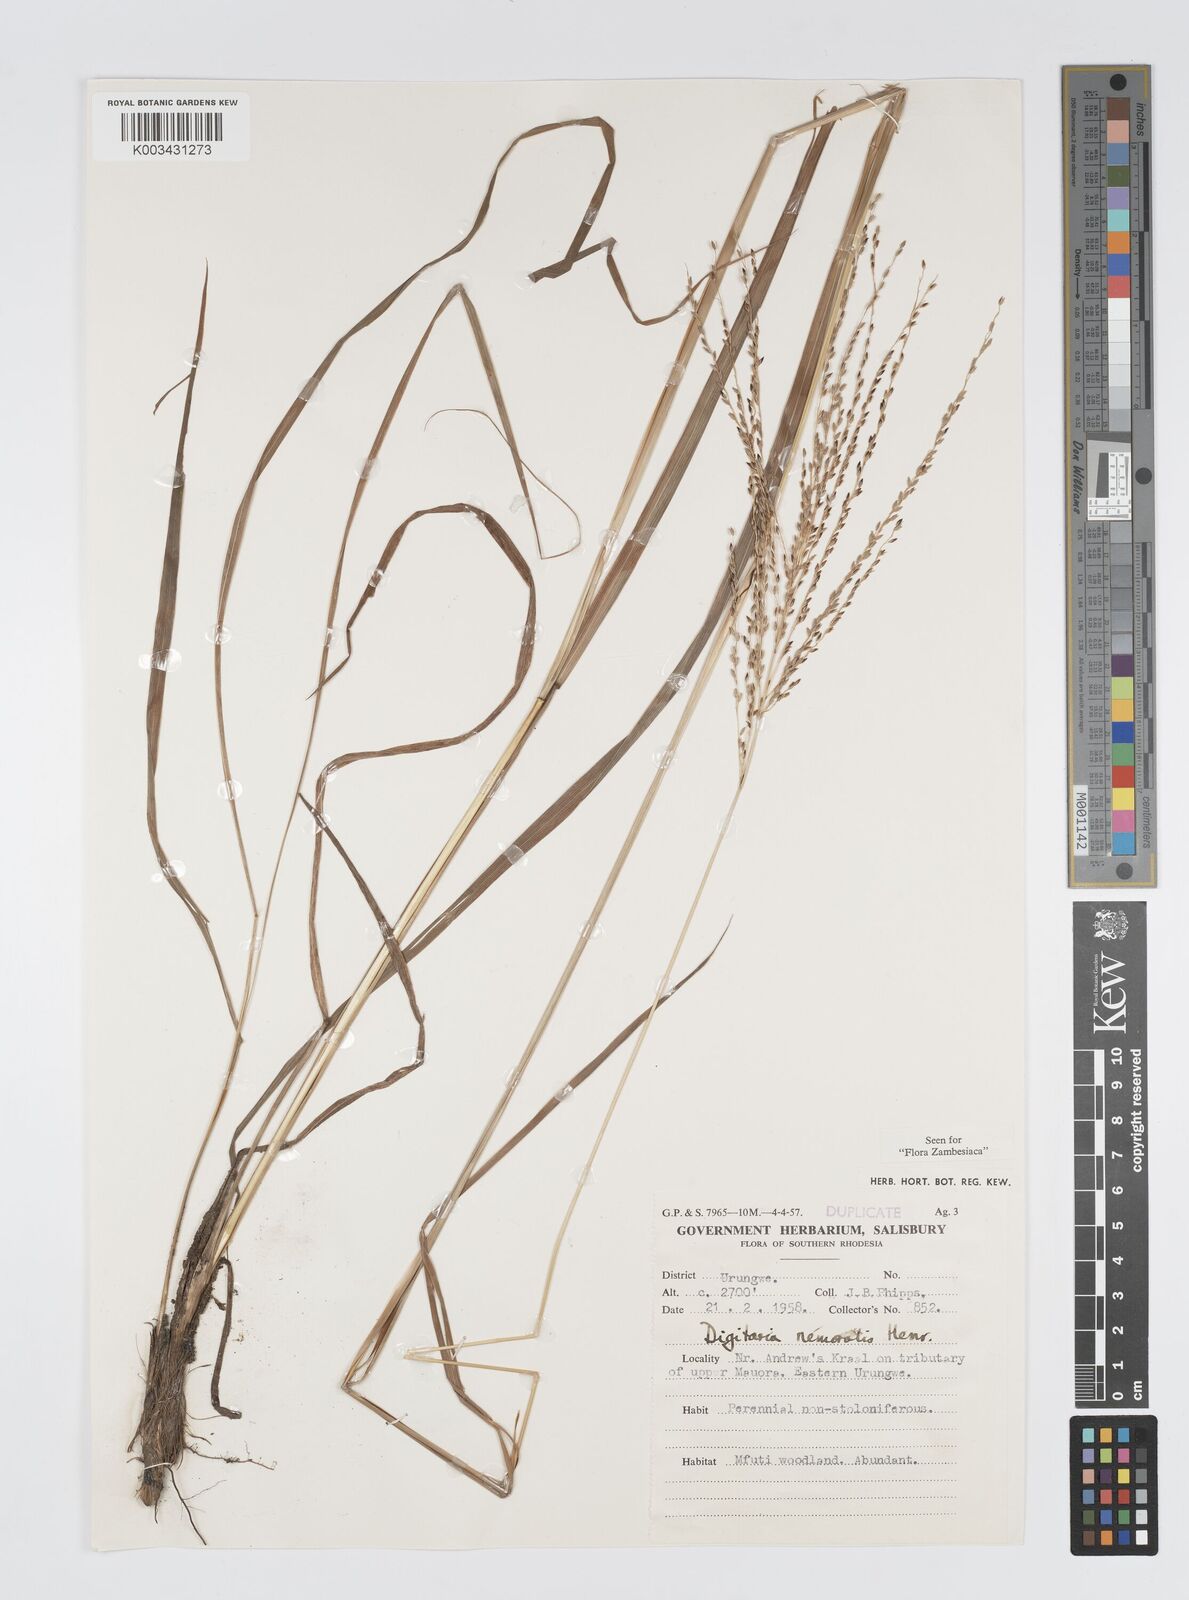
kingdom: Plantae
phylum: Tracheophyta
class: Liliopsida
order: Poales
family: Poaceae
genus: Digitaria
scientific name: Digitaria compressa
